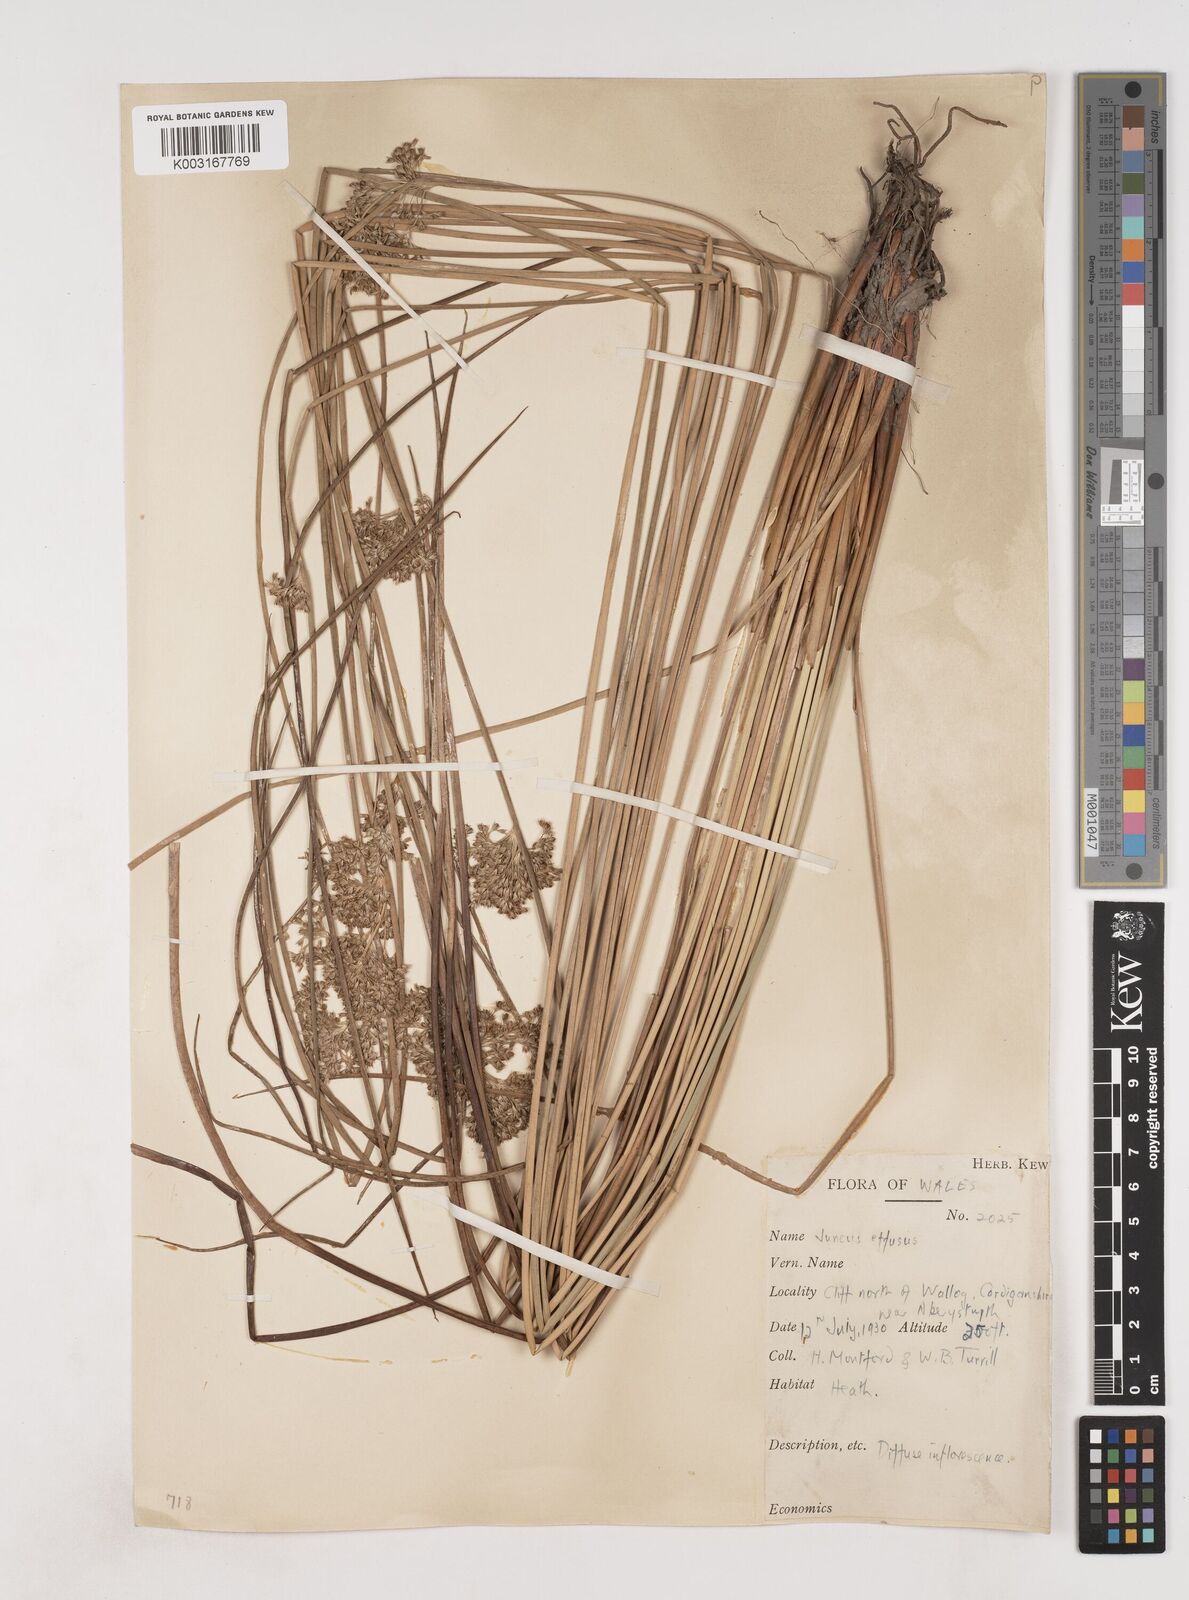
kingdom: Plantae
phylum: Tracheophyta
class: Liliopsida
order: Poales
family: Juncaceae
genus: Juncus
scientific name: Juncus effusus
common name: Soft rush
